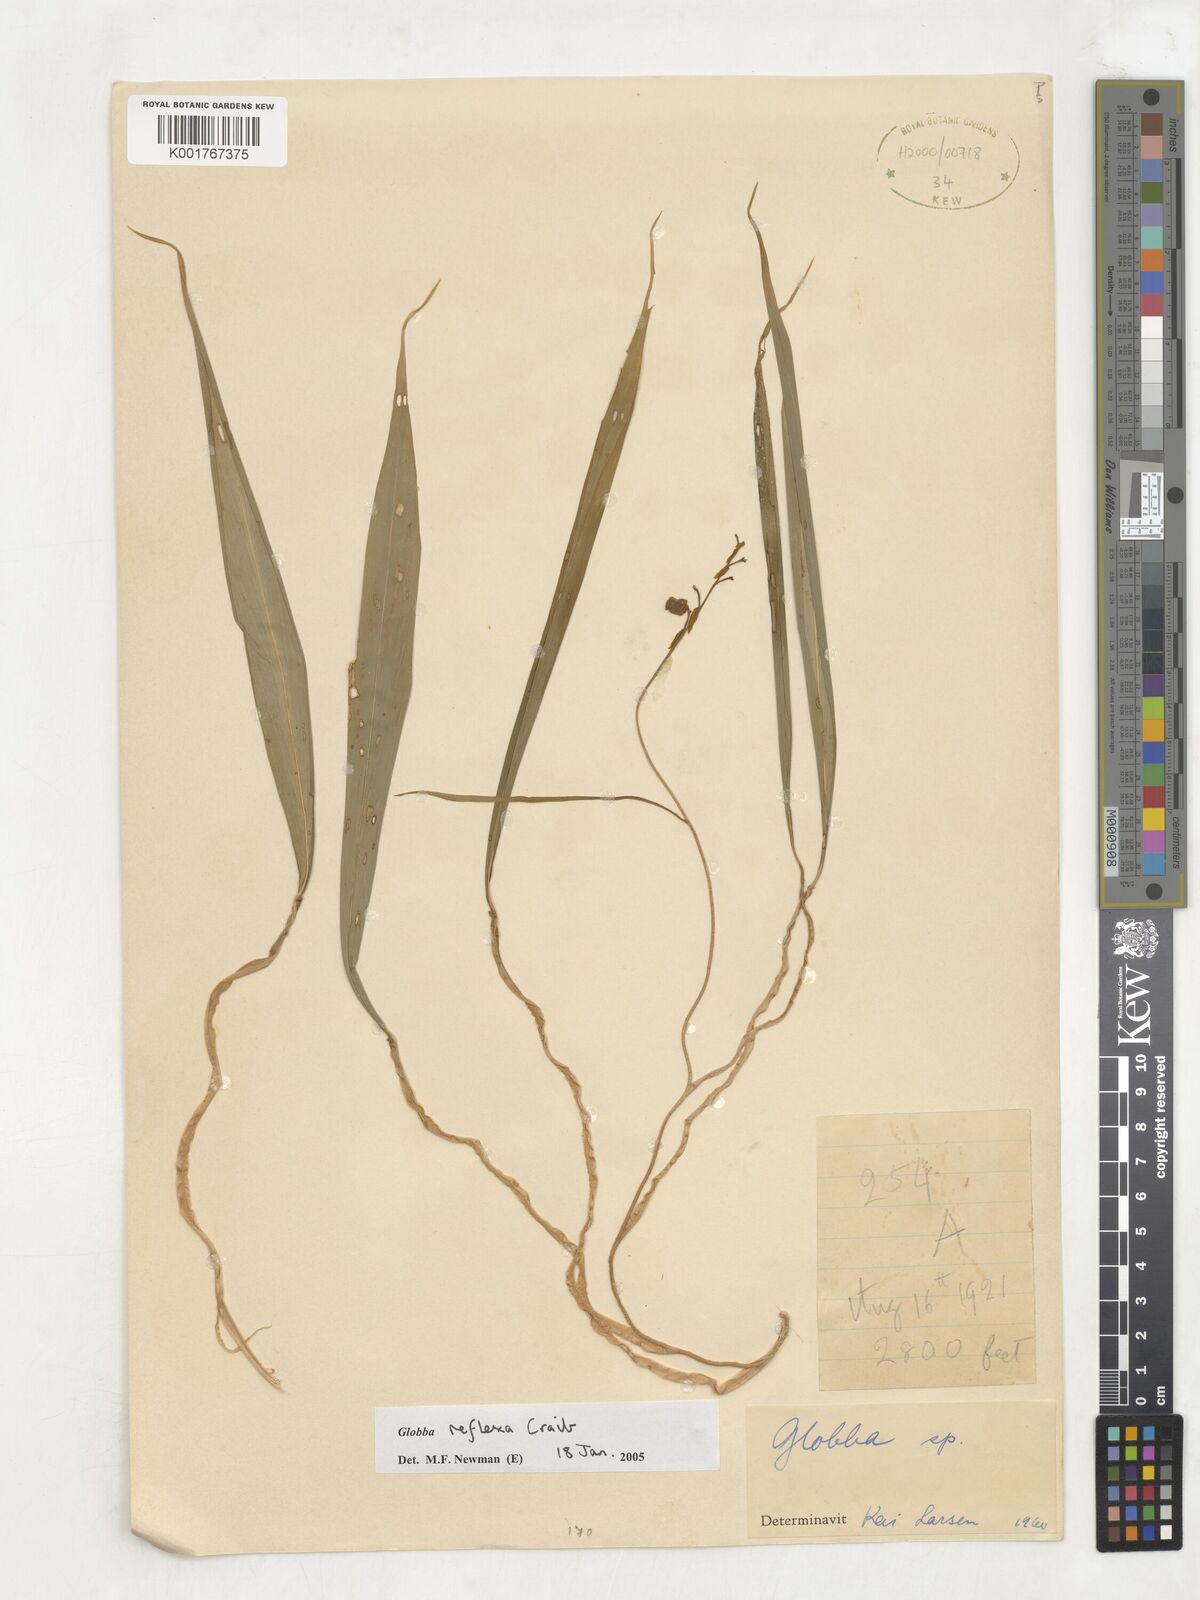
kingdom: Plantae
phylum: Tracheophyta
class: Liliopsida
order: Zingiberales
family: Zingiberaceae
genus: Globba
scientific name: Globba reflexa
